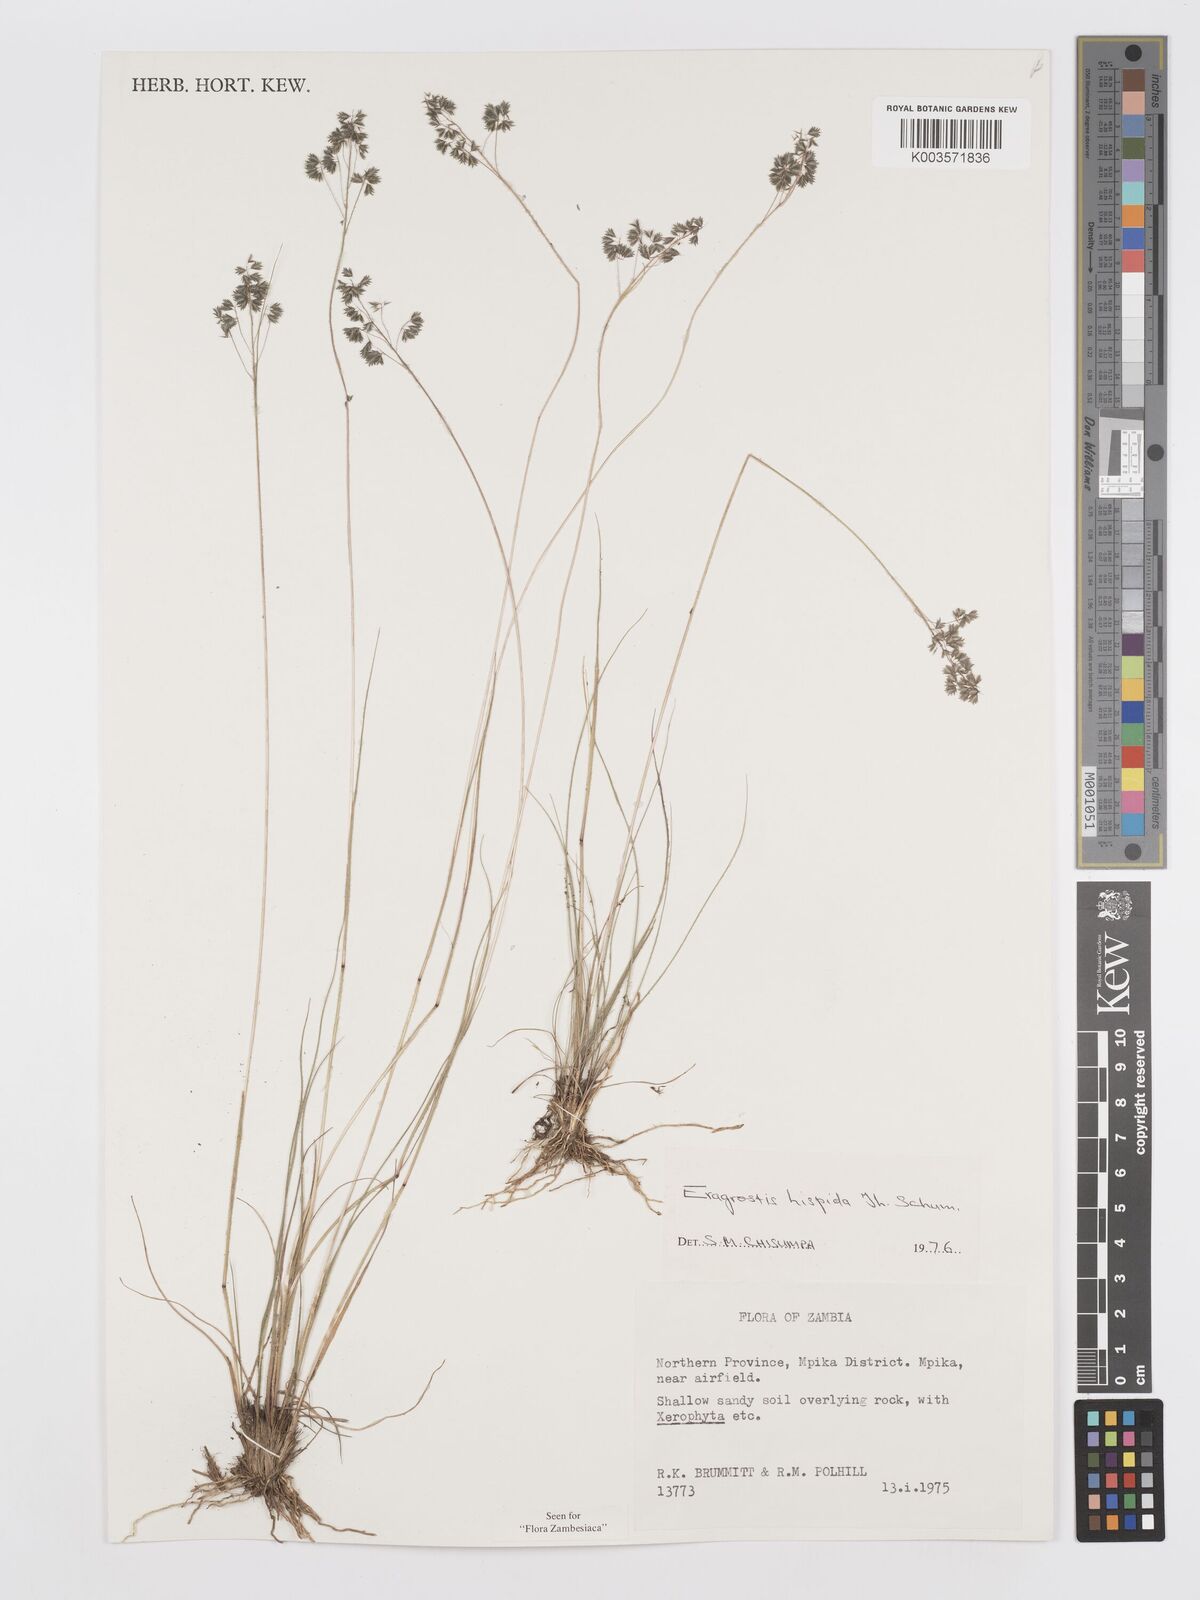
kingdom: Plantae
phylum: Tracheophyta
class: Liliopsida
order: Poales
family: Poaceae
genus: Eragrostis
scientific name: Eragrostis hispida
